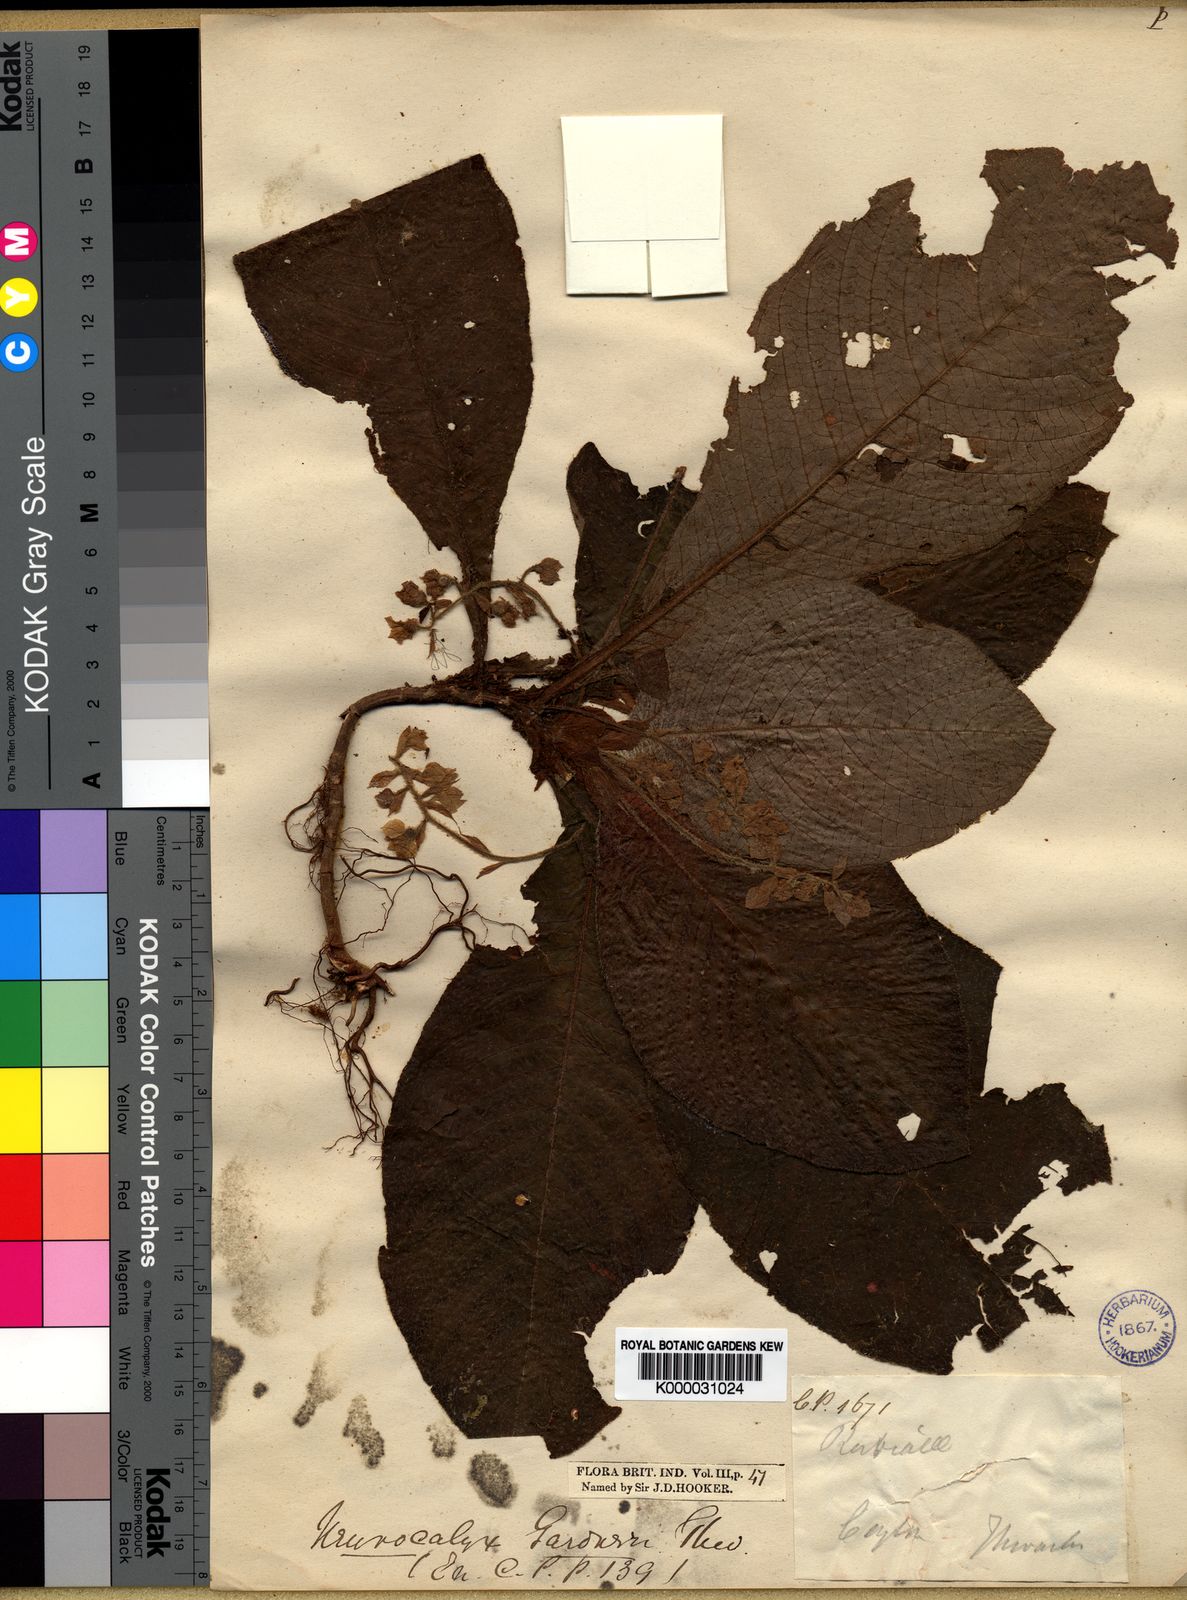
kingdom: Plantae
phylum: Tracheophyta
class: Magnoliopsida
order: Gentianales
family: Rubiaceae
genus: Neurocalyx
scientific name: Neurocalyx gardneri
